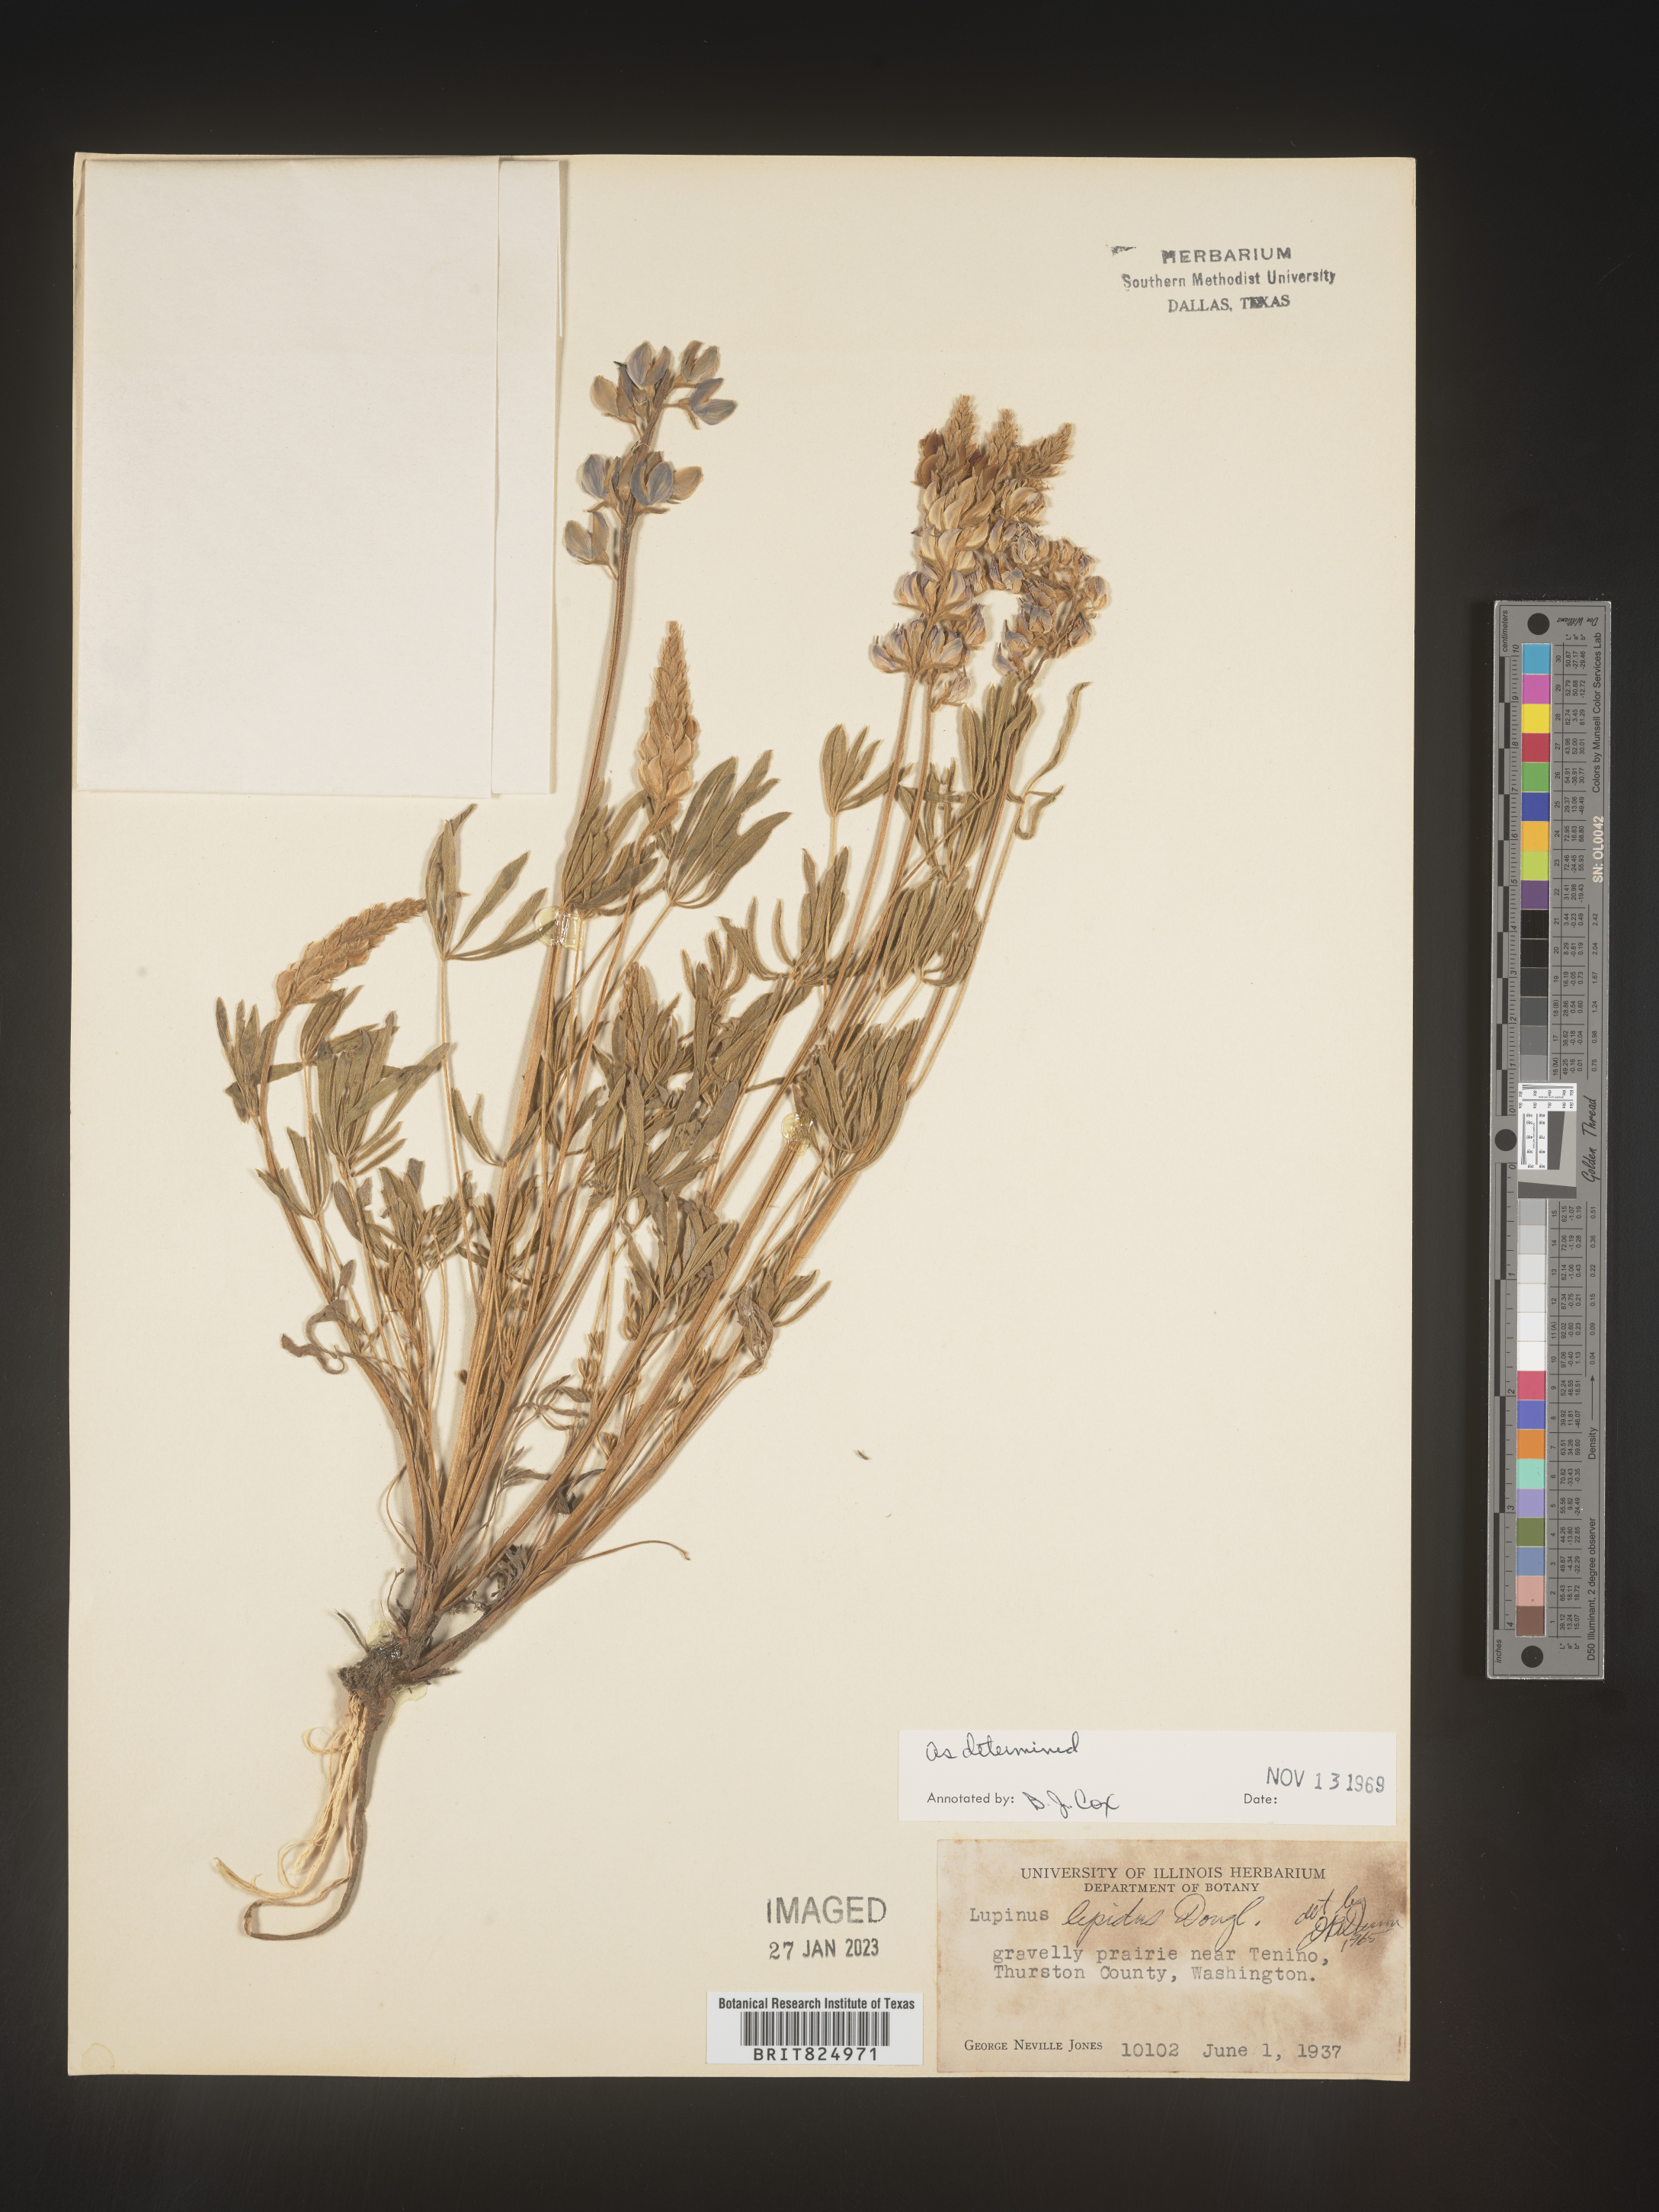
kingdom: Plantae
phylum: Tracheophyta
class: Magnoliopsida
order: Fabales
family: Fabaceae
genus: Lupinus
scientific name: Lupinus
